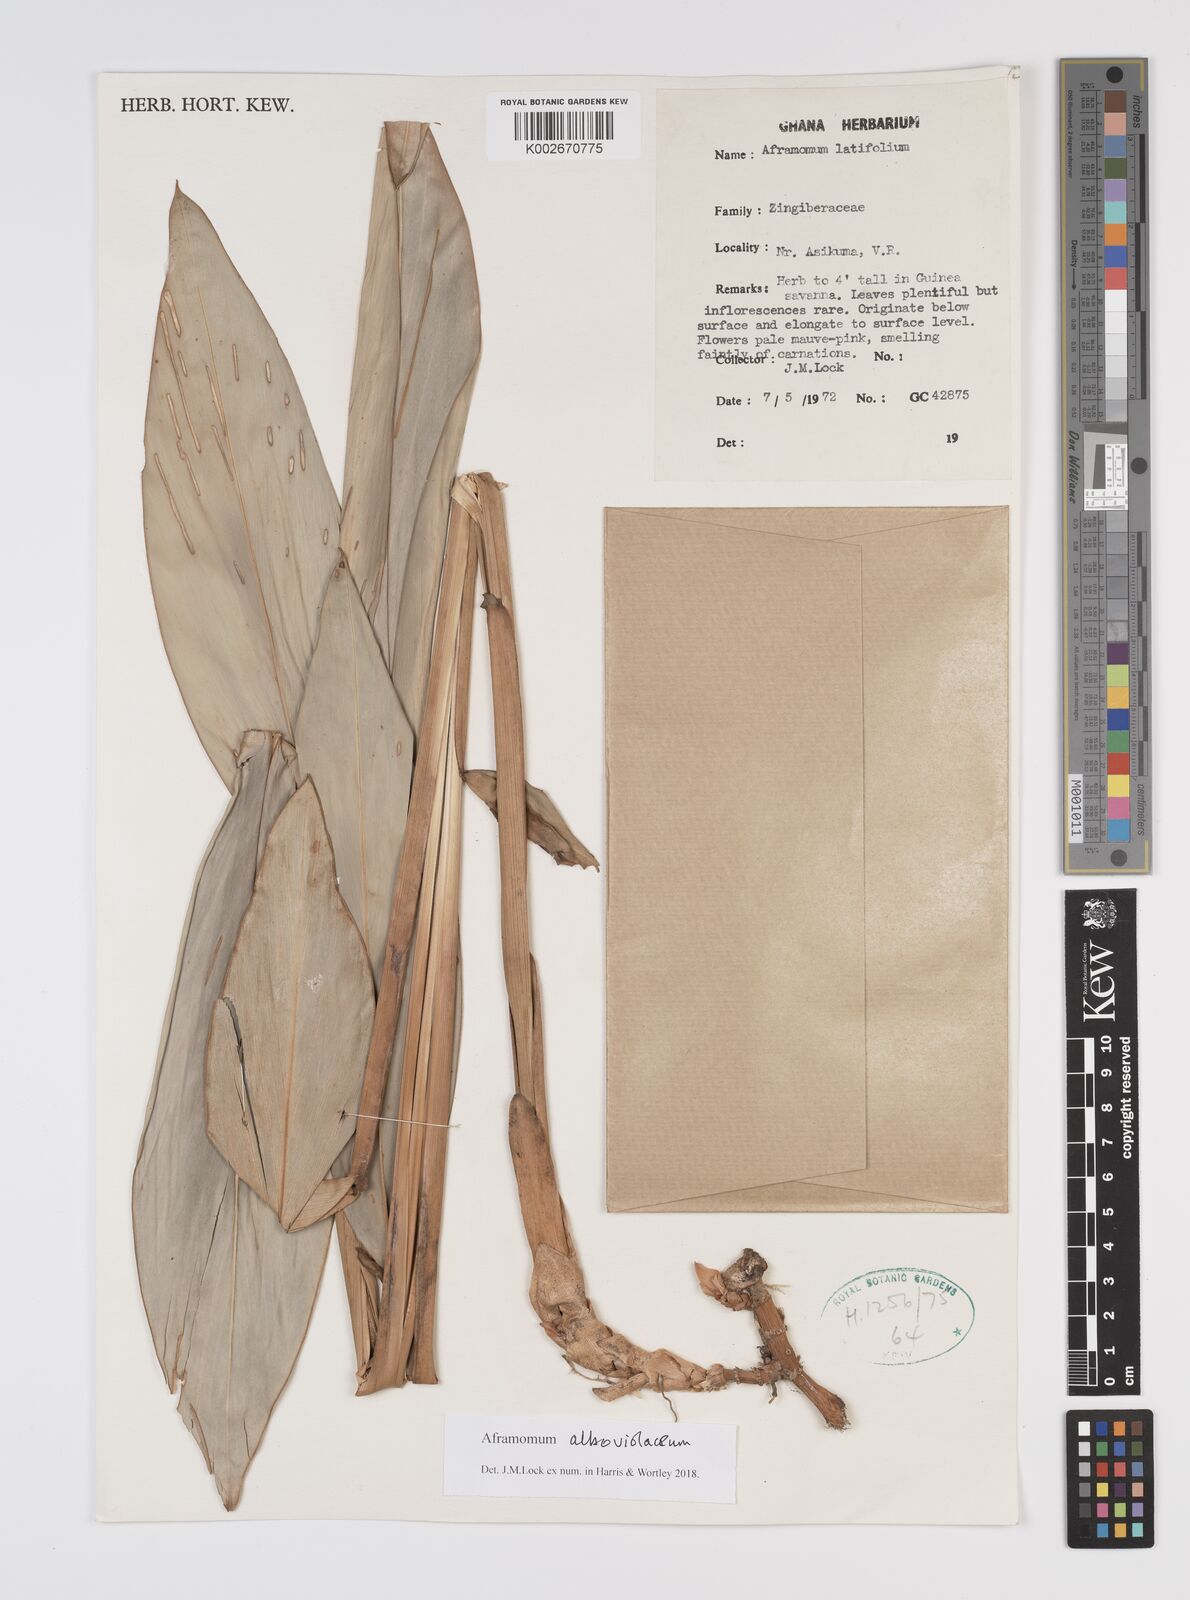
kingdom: Plantae
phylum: Tracheophyta
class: Liliopsida
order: Zingiberales
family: Zingiberaceae
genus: Aframomum
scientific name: Aframomum alboviolaceum
